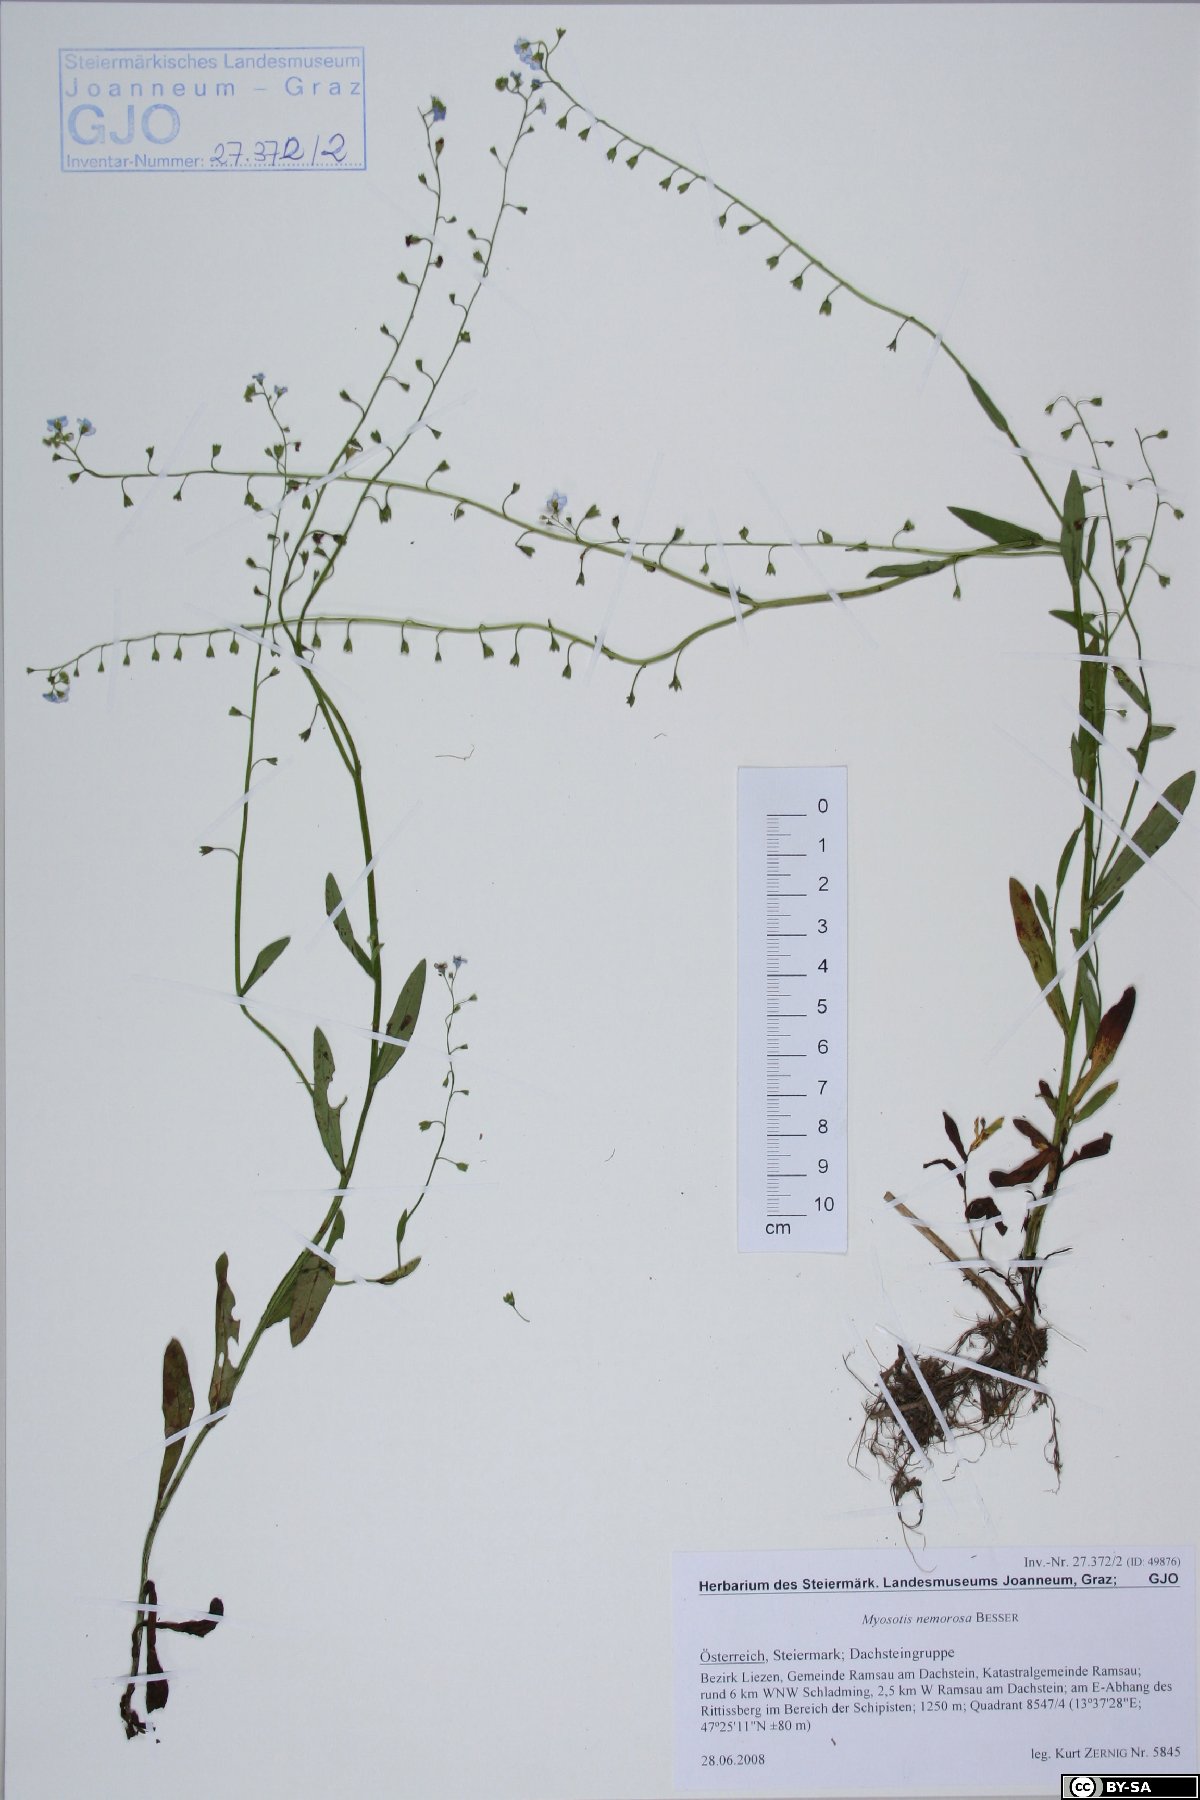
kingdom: Plantae
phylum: Tracheophyta
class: Magnoliopsida
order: Boraginales
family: Boraginaceae
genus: Myosotis
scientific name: Myosotis nemorosa
